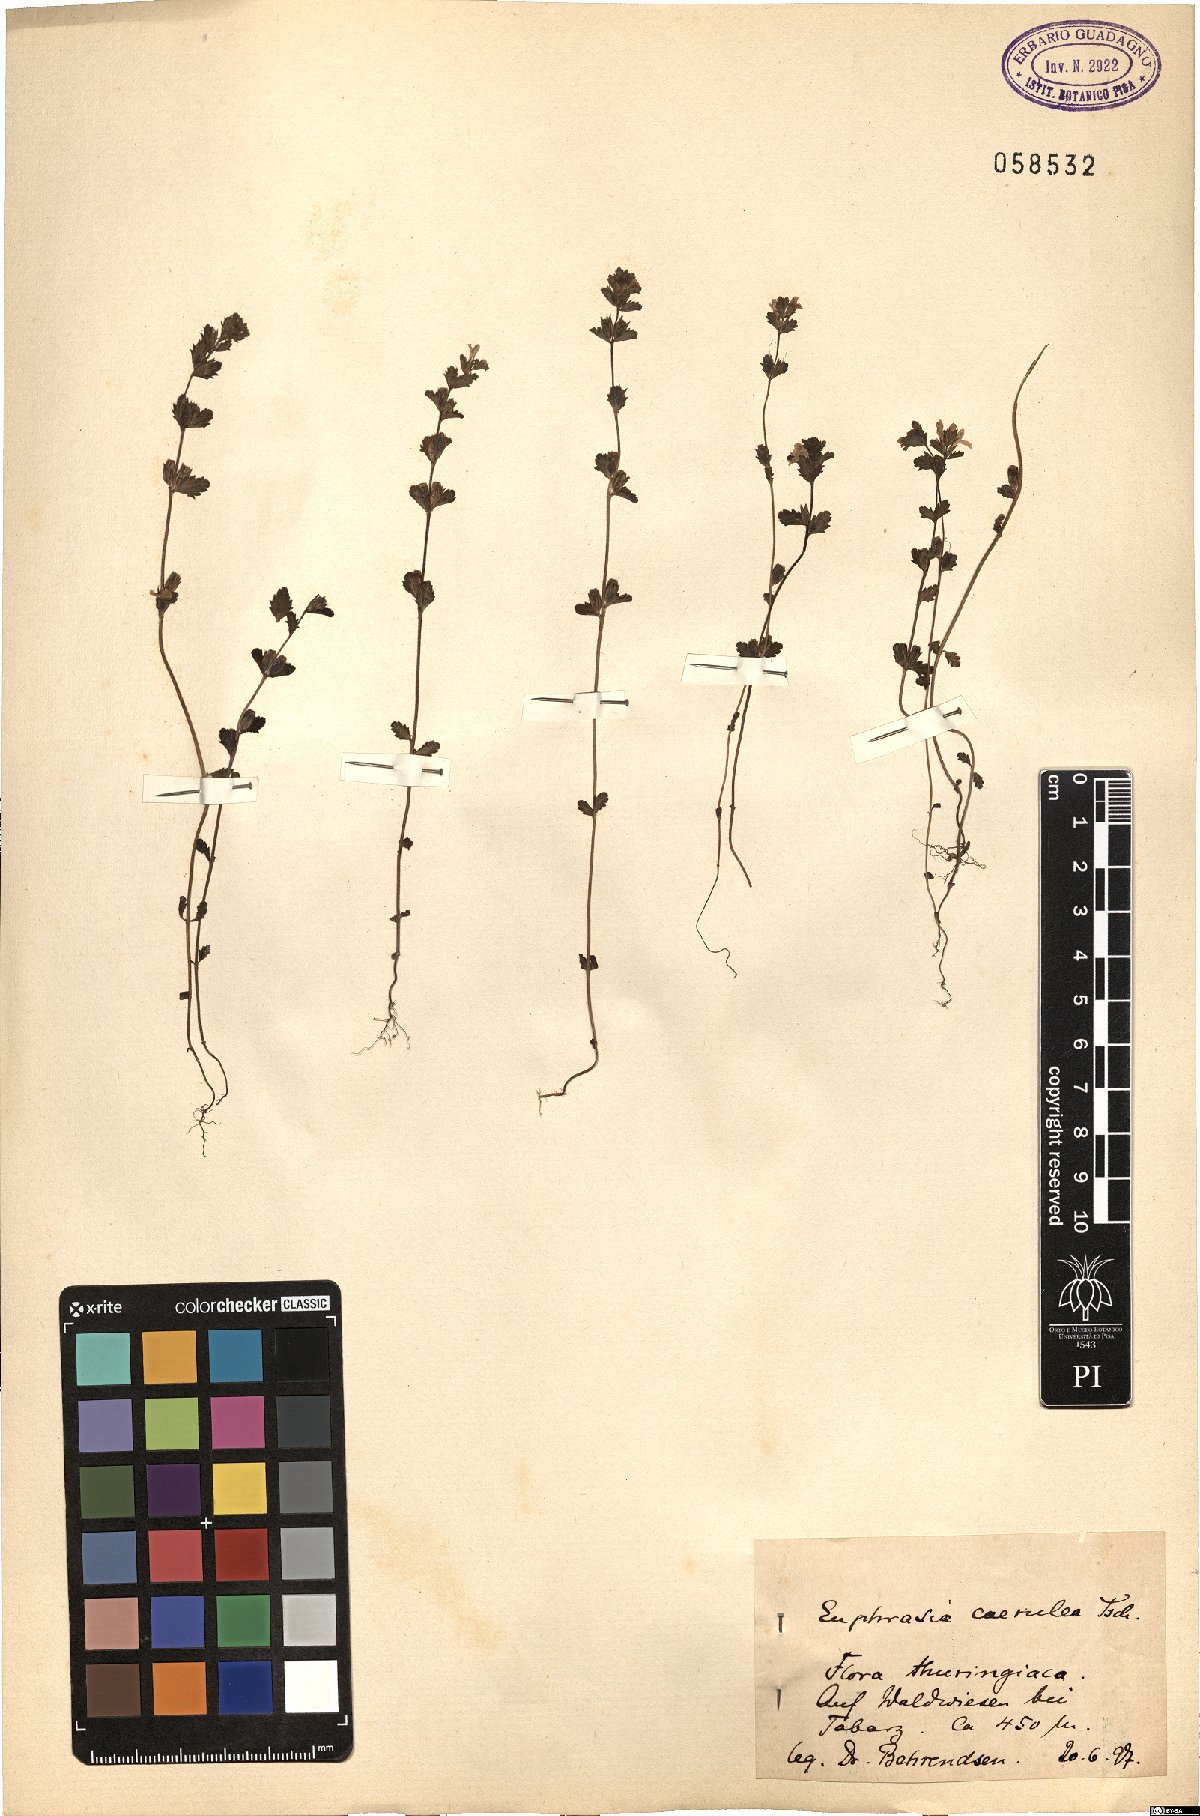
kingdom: Plantae
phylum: Tracheophyta
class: Magnoliopsida
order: Lamiales
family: Orobanchaceae
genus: Euphrasia
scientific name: Euphrasia nemorosa
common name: Common eyebright
